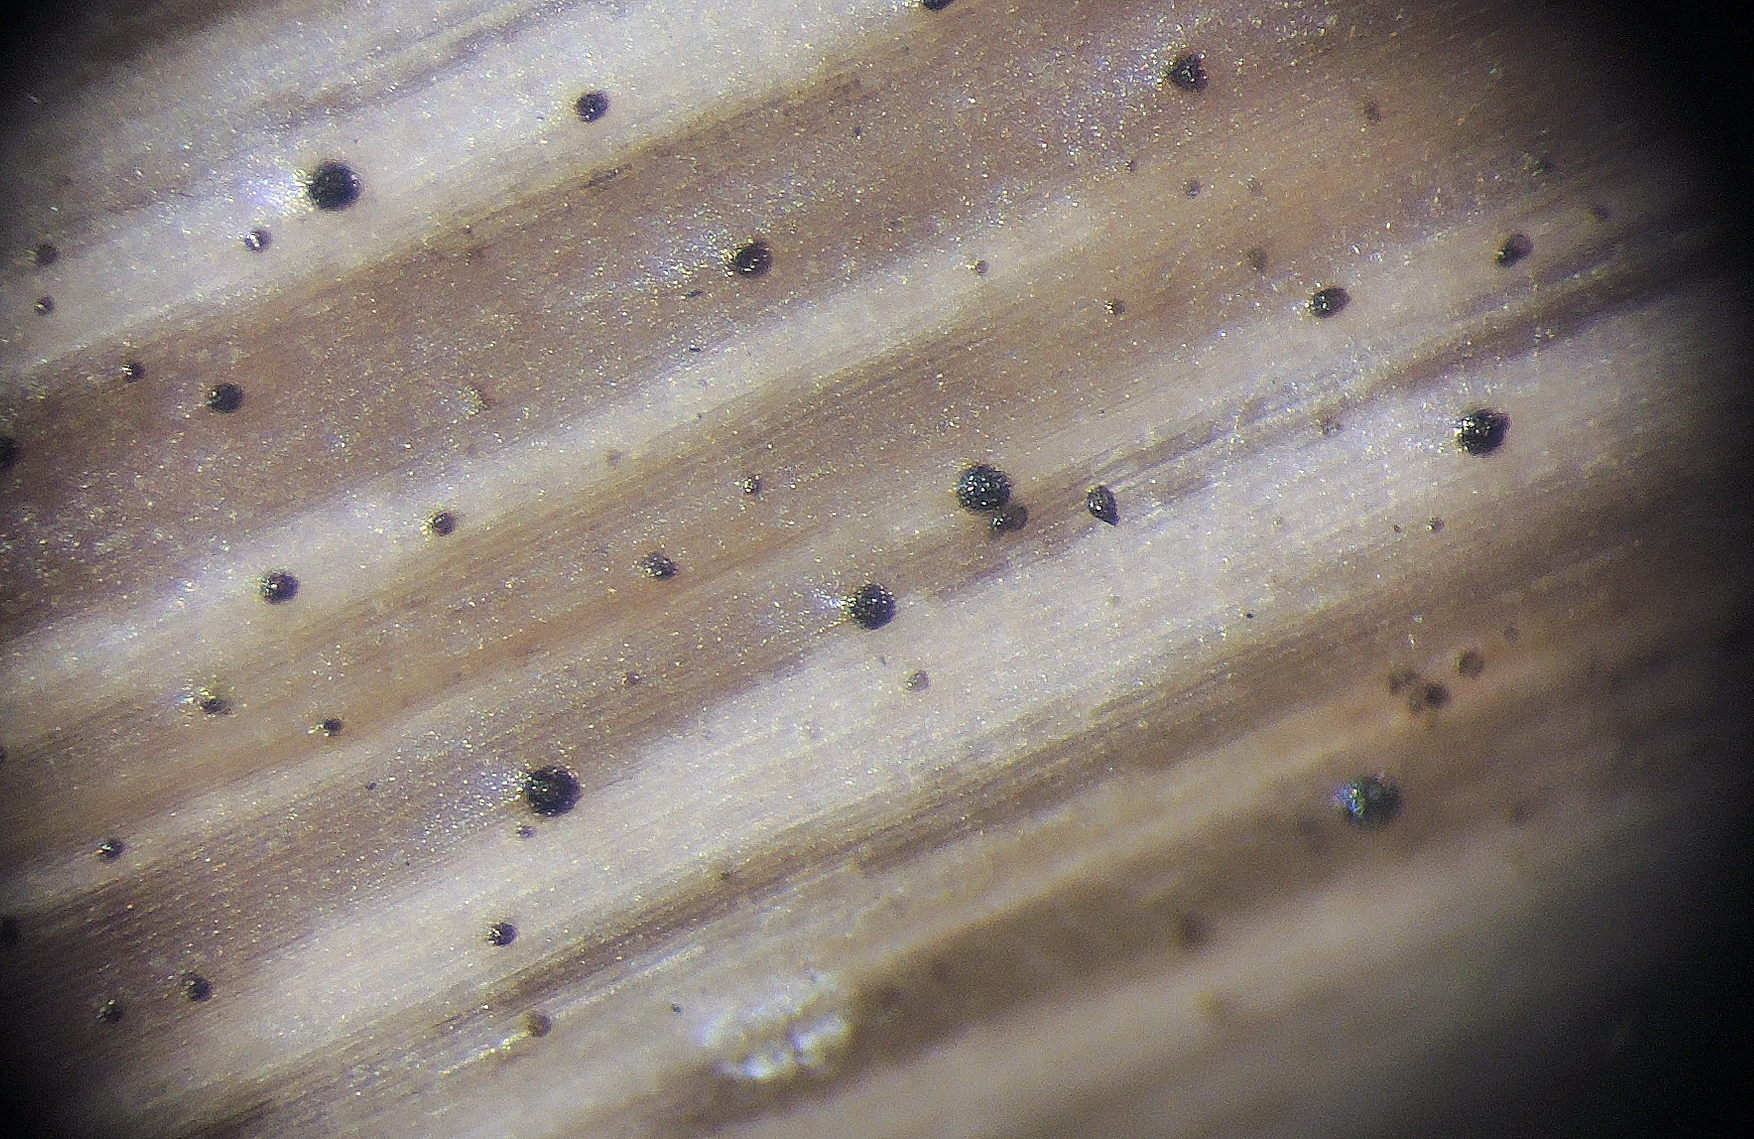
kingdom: Fungi
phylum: Ascomycota
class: Dothideomycetes
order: Microthyriales
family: Microthyriaceae
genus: Lichenopeltella
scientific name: Lichenopeltella ammophilae
